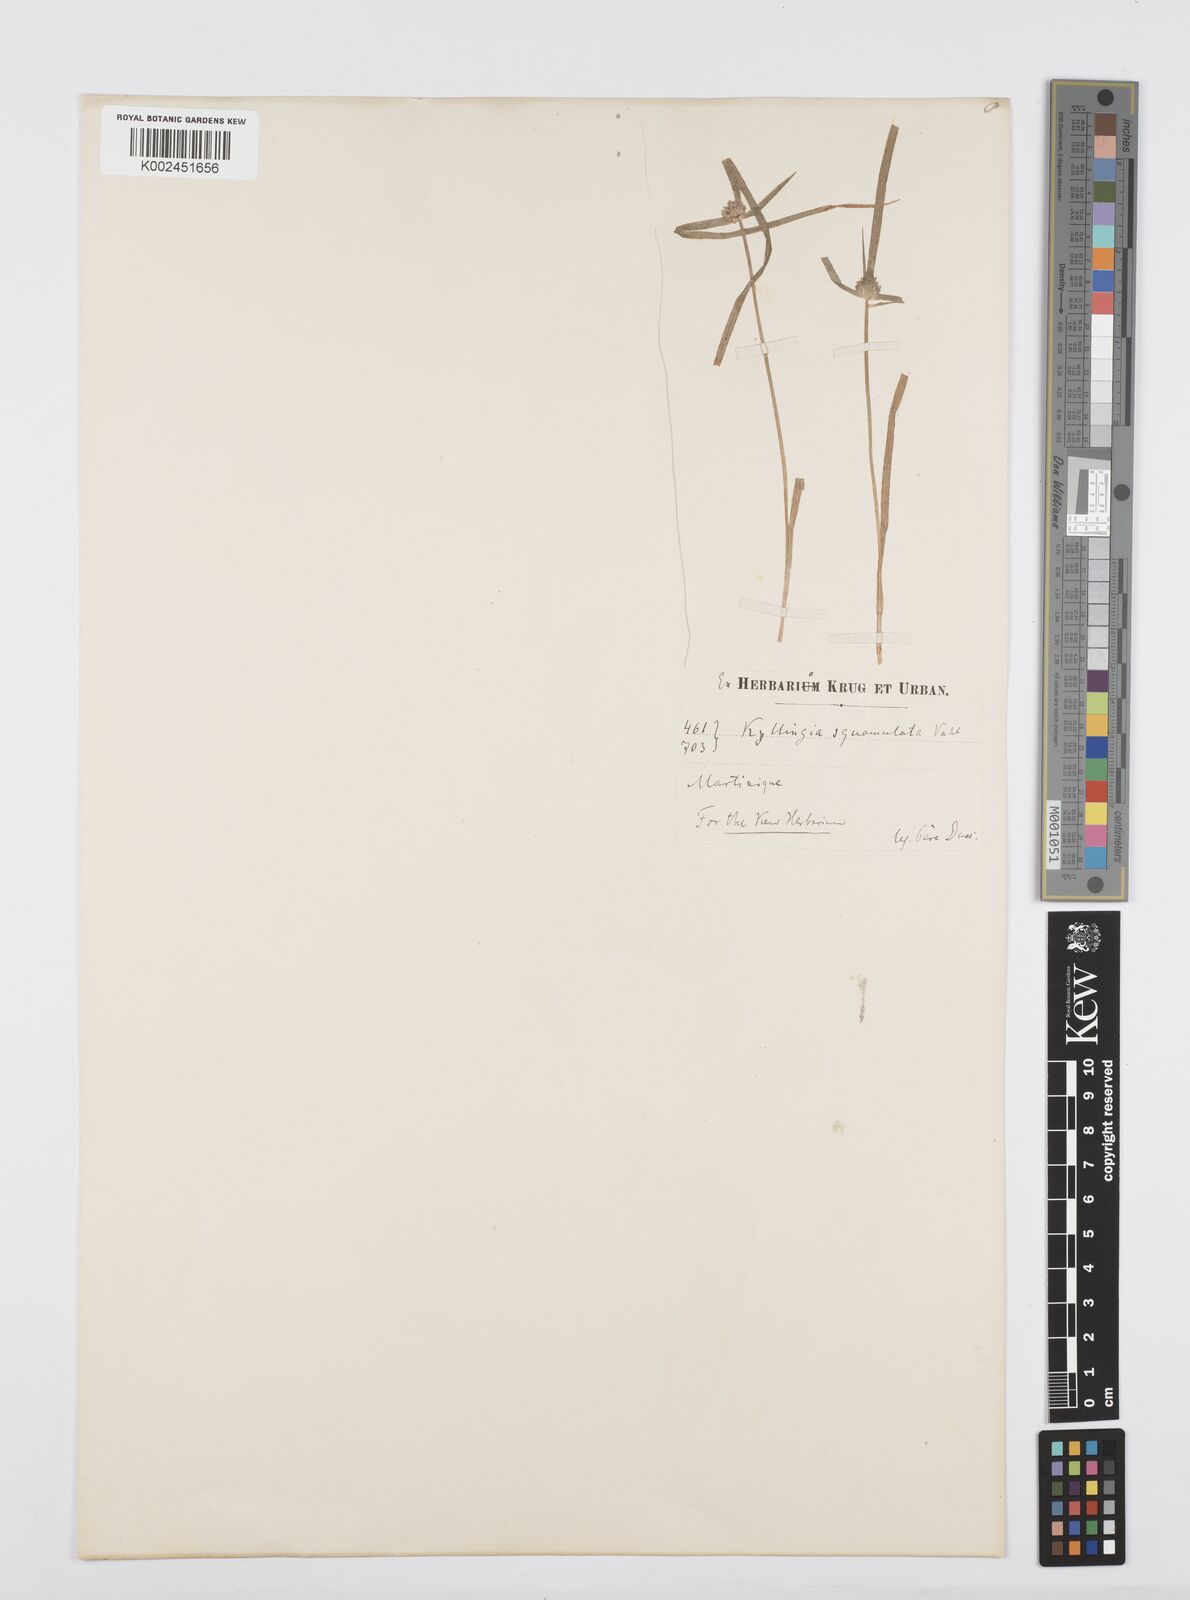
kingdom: Plantae
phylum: Tracheophyta
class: Liliopsida
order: Poales
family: Cyperaceae
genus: Cyperus
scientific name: Cyperus distans
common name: Slender cyperus
